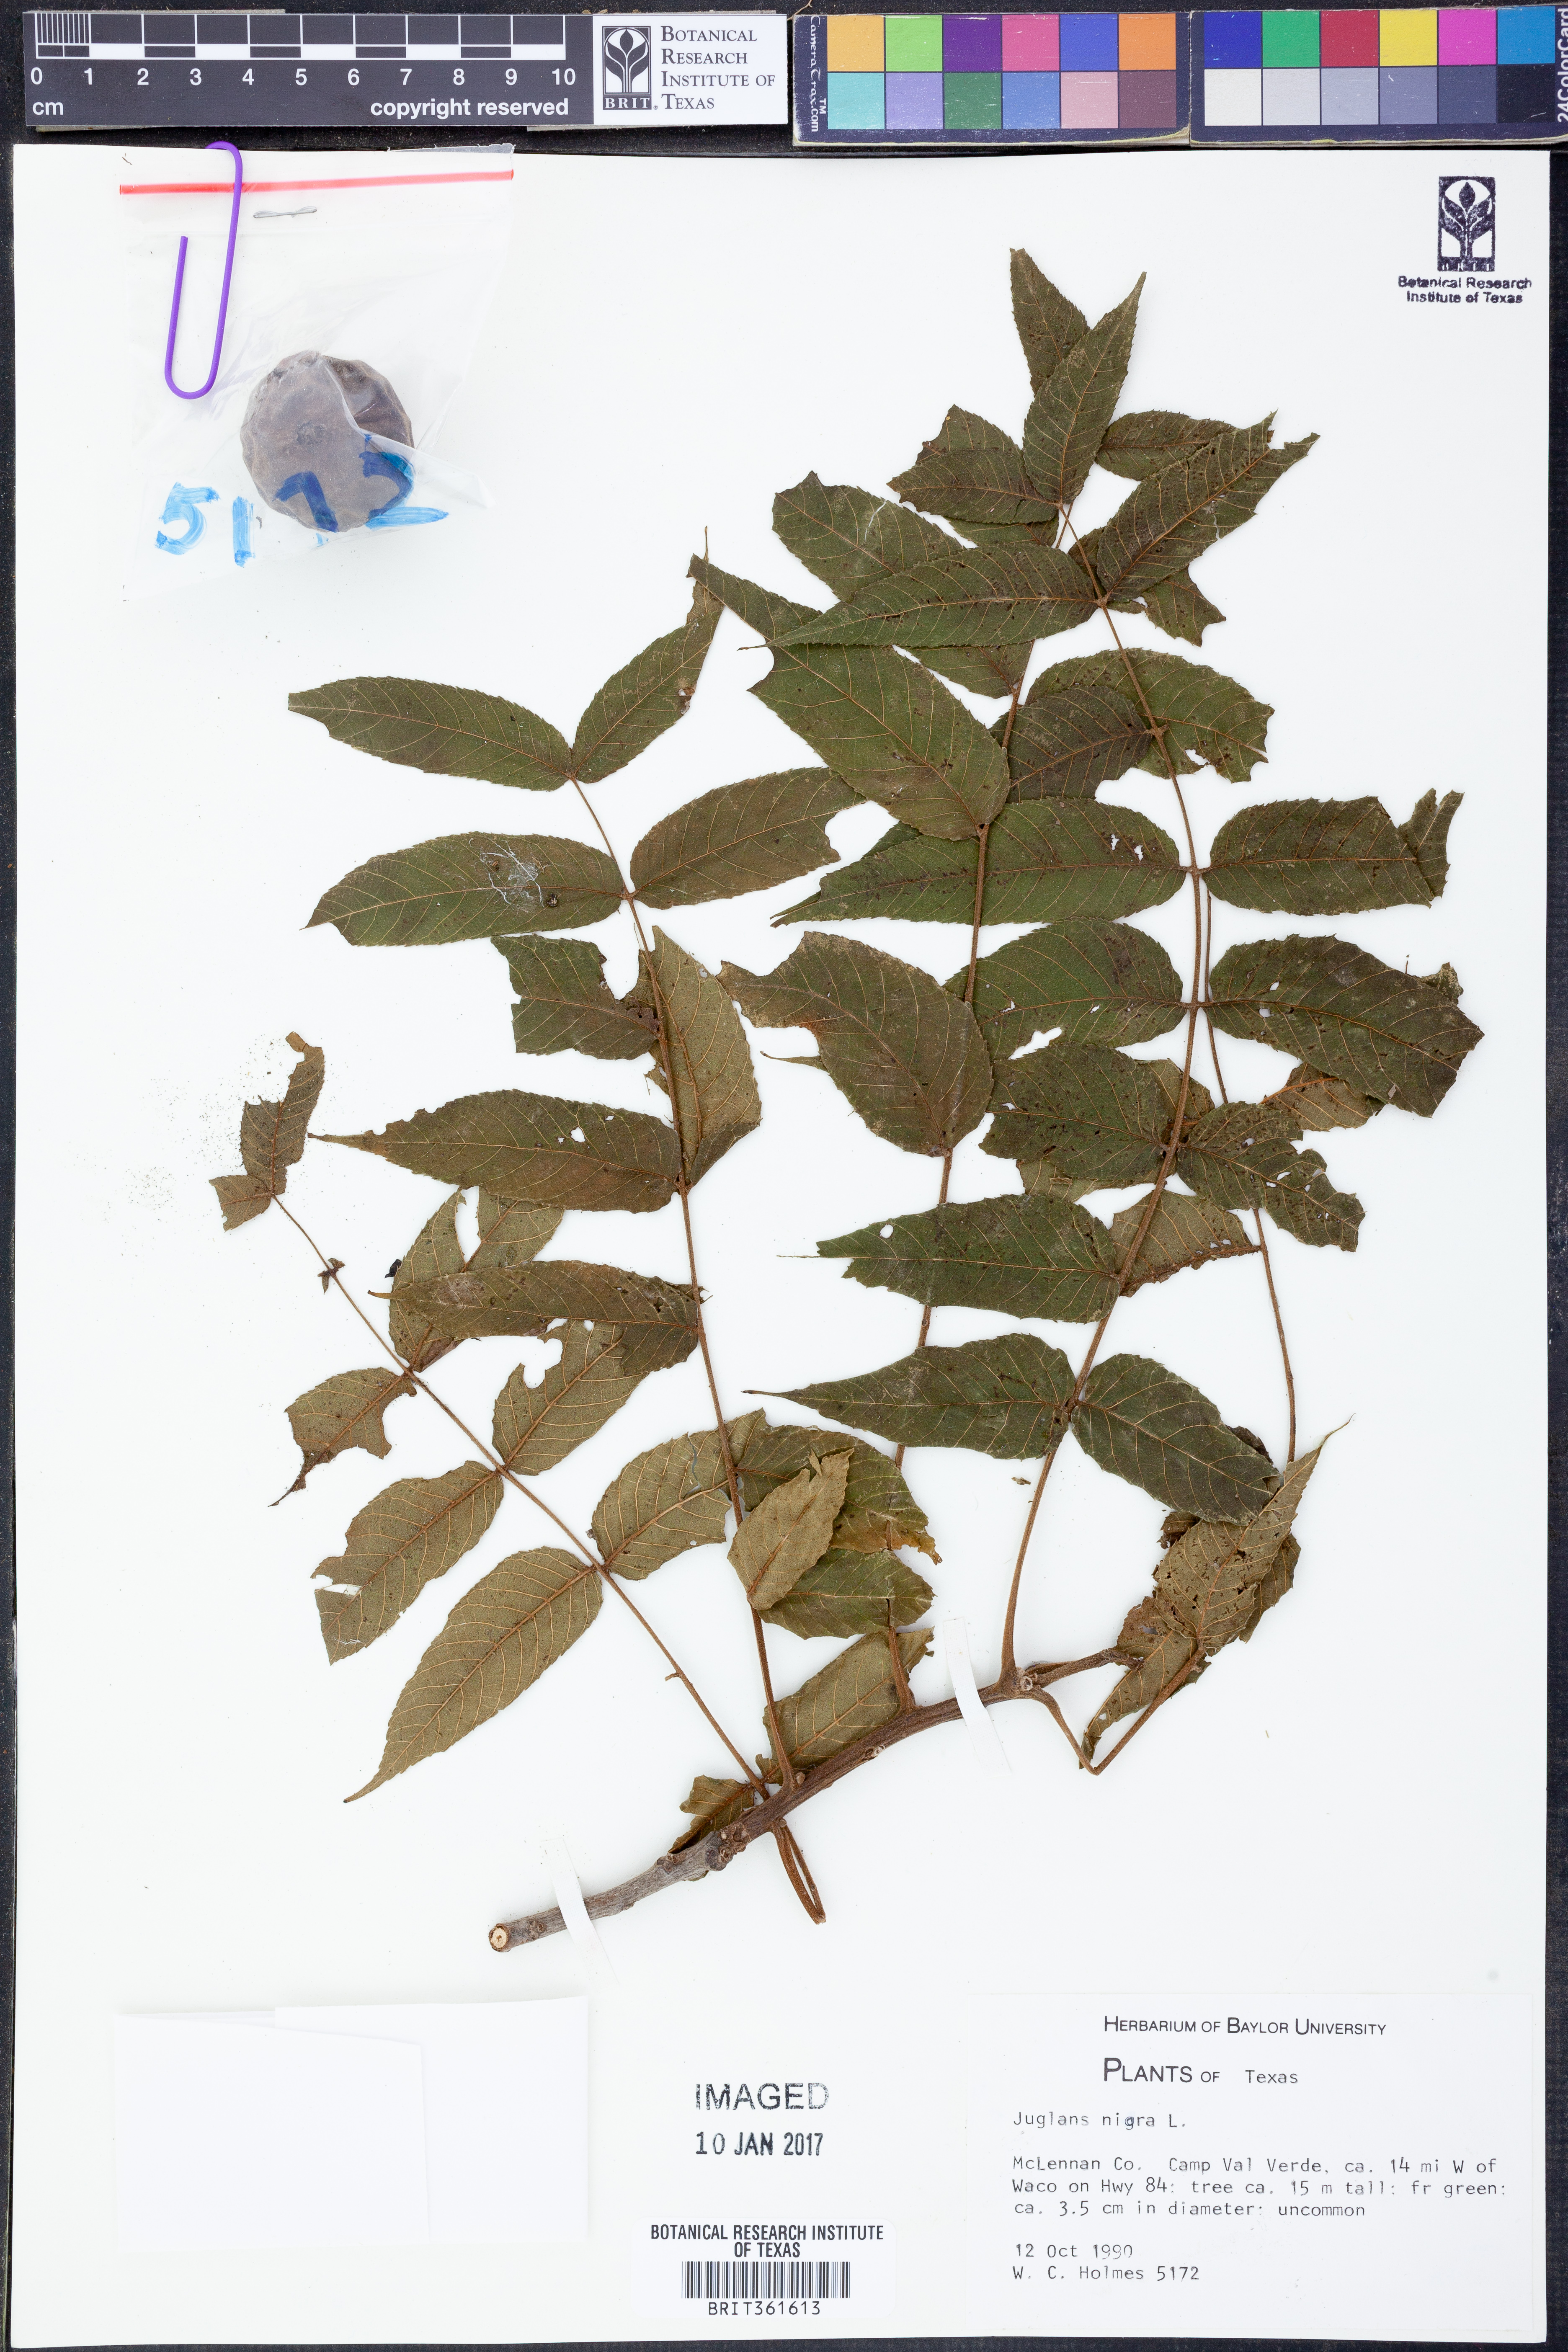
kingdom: Plantae
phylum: Tracheophyta
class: Magnoliopsida
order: Fagales
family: Juglandaceae
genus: Juglans
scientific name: Juglans nigra
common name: Black walnut
